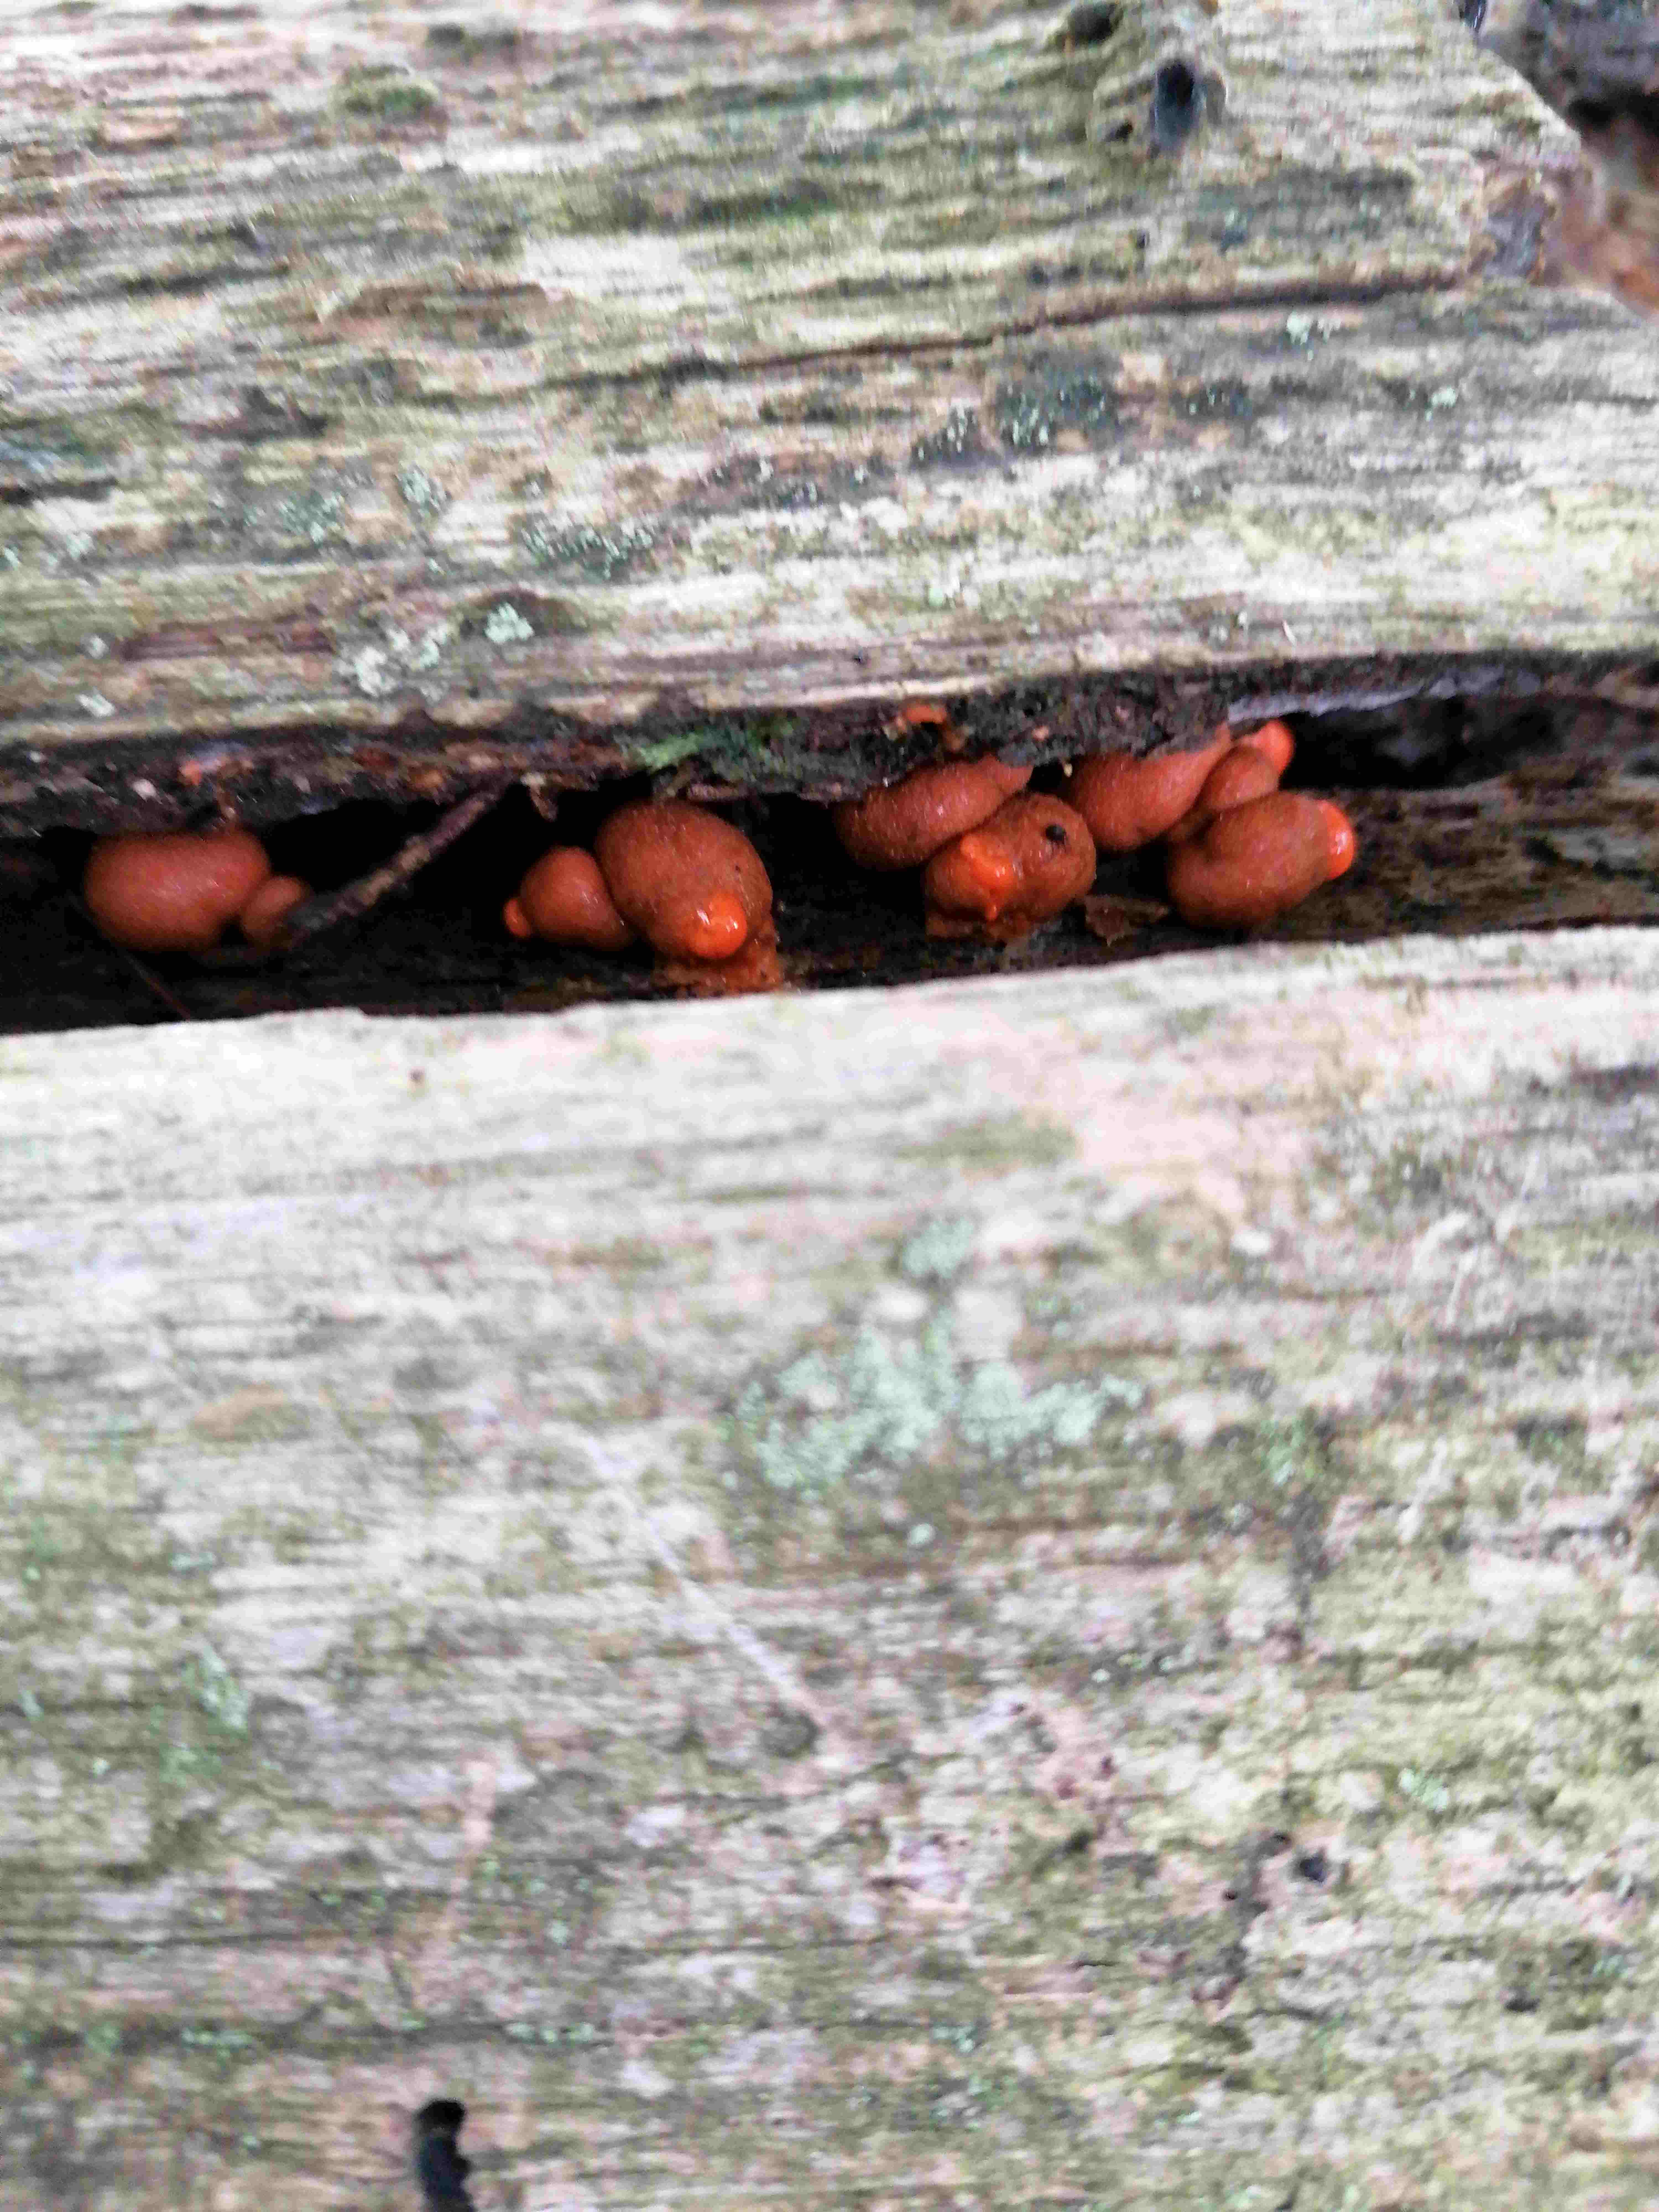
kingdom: Protozoa
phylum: Mycetozoa
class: Myxomycetes
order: Cribrariales
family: Tubiferaceae
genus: Lycogala
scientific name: Lycogala epidendrum
